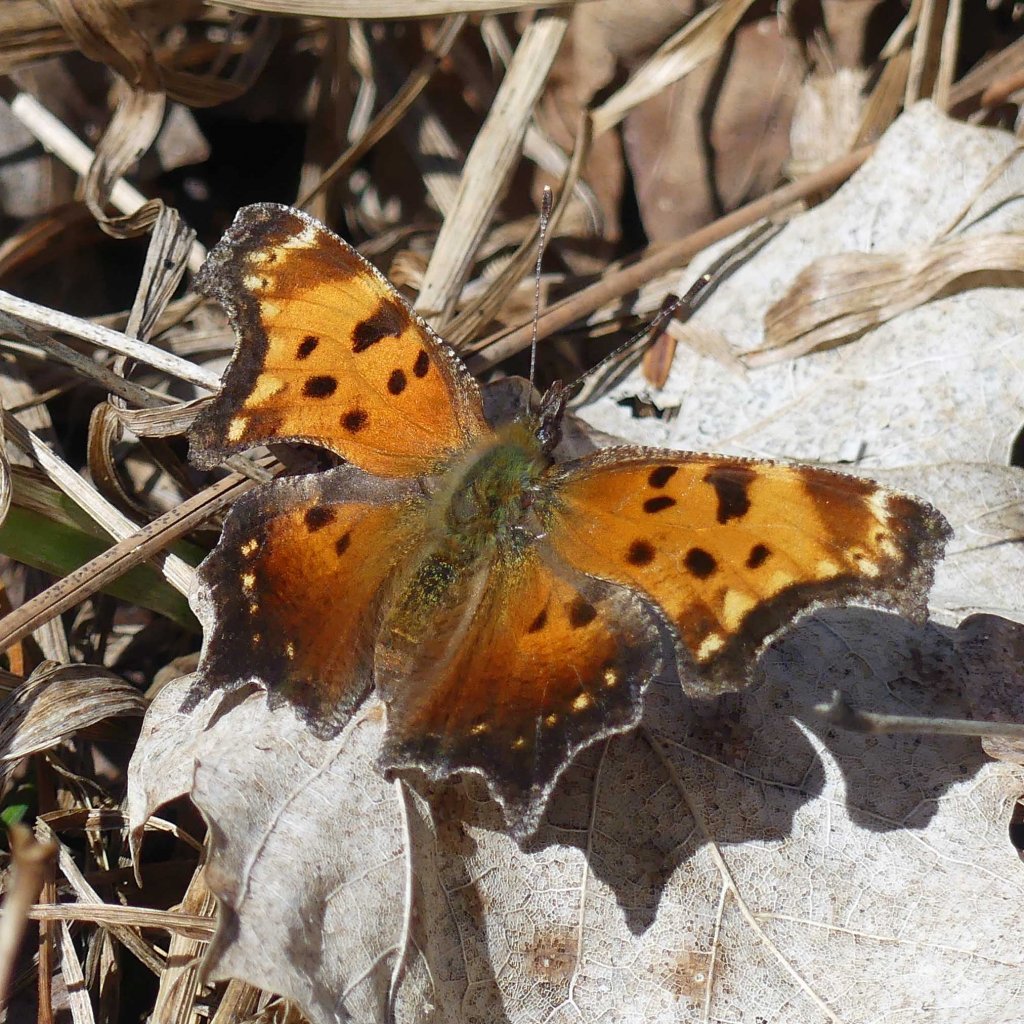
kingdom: Animalia
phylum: Arthropoda
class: Insecta
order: Lepidoptera
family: Nymphalidae
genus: Polygonia
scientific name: Polygonia progne
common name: Gray Comma
